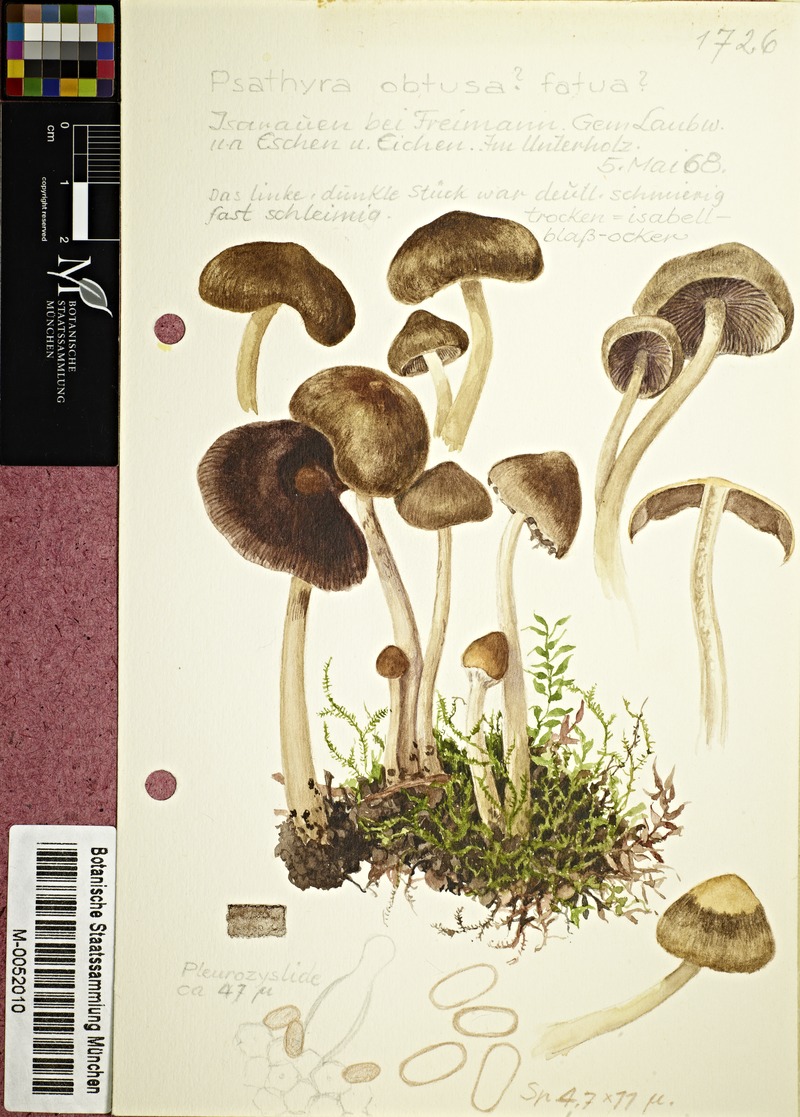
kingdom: Fungi
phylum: Basidiomycota
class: Agaricomycetes
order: Agaricales
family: Psathyrellaceae
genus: Psathyrella
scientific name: Psathyrella obtusata
